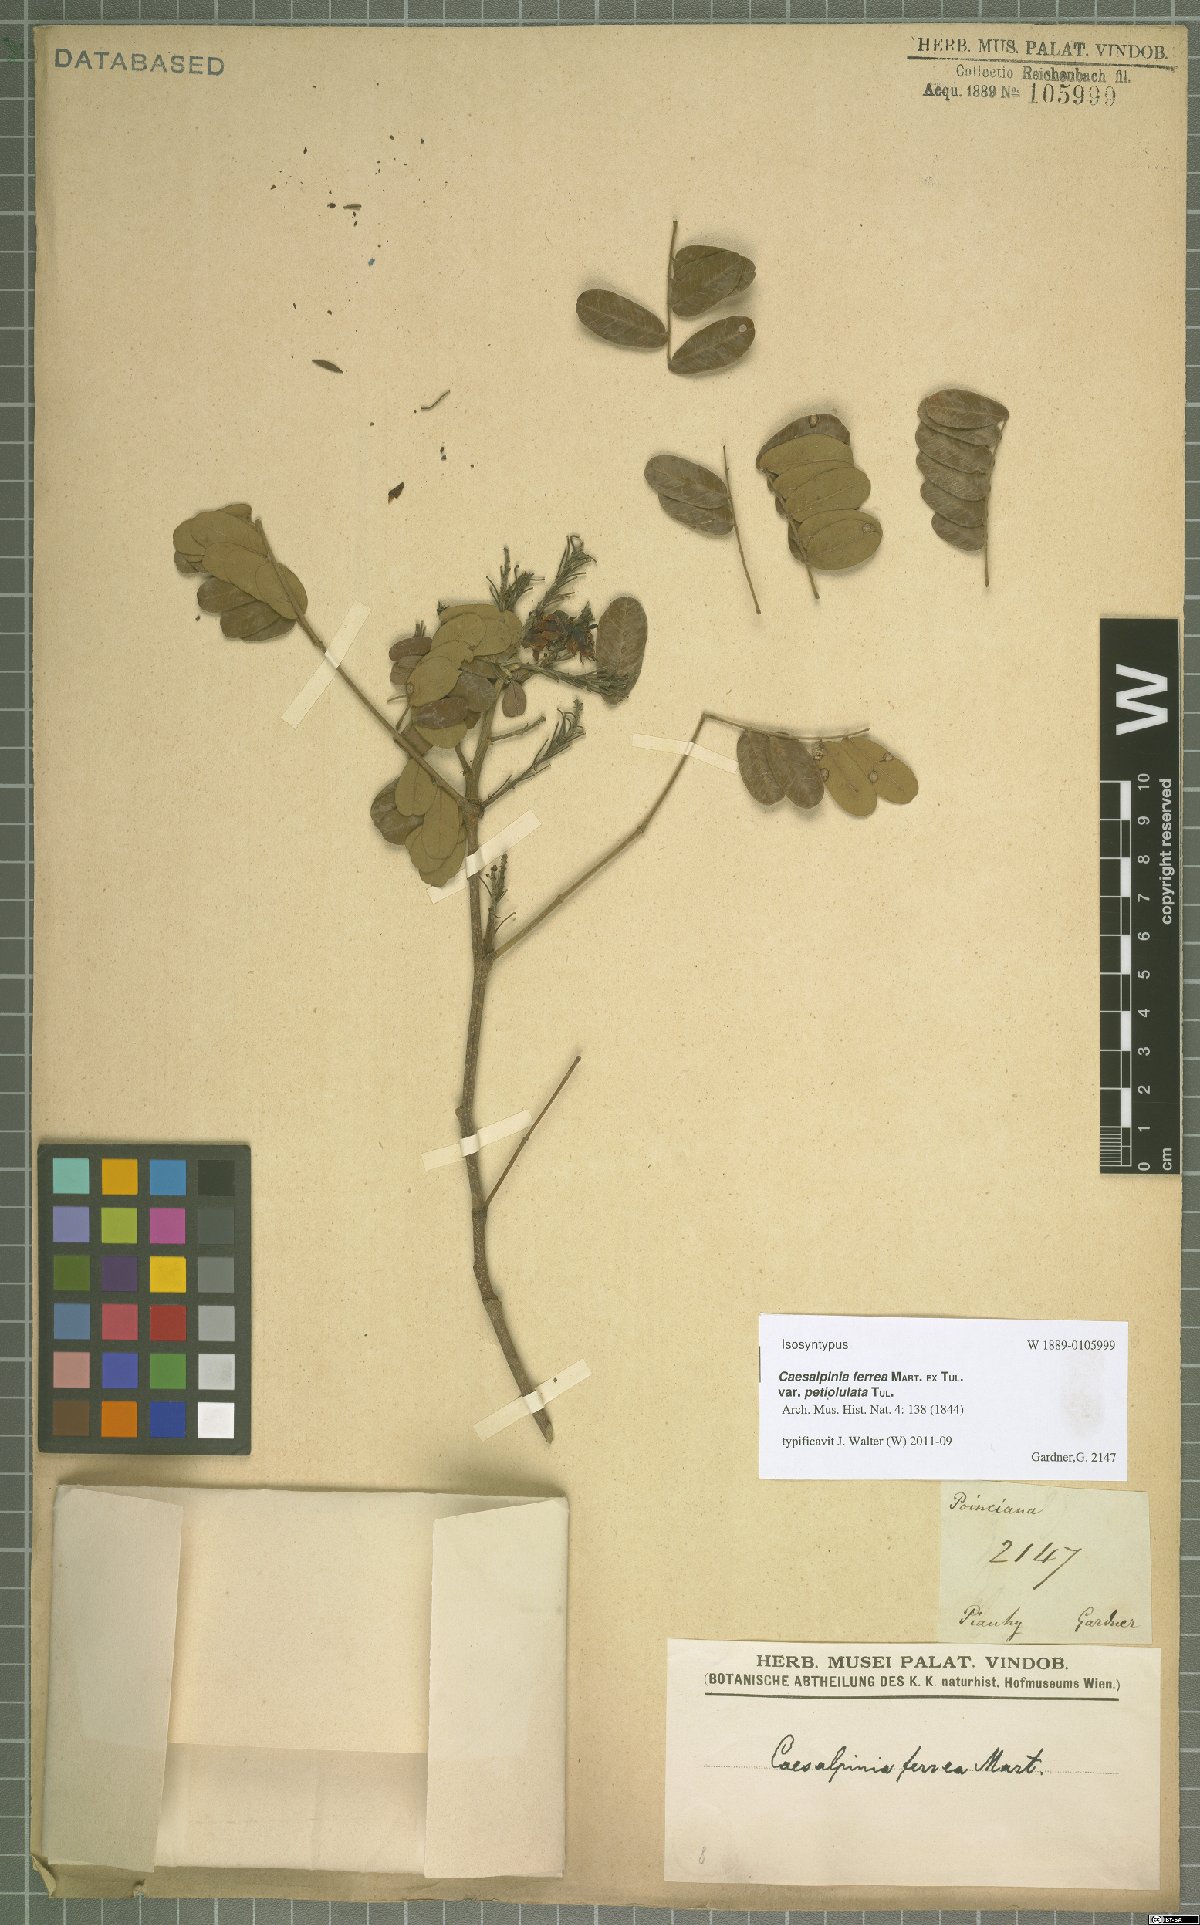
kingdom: Plantae
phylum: Tracheophyta
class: Magnoliopsida
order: Fabales
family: Fabaceae
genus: Libidibia
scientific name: Libidibia ferrea
